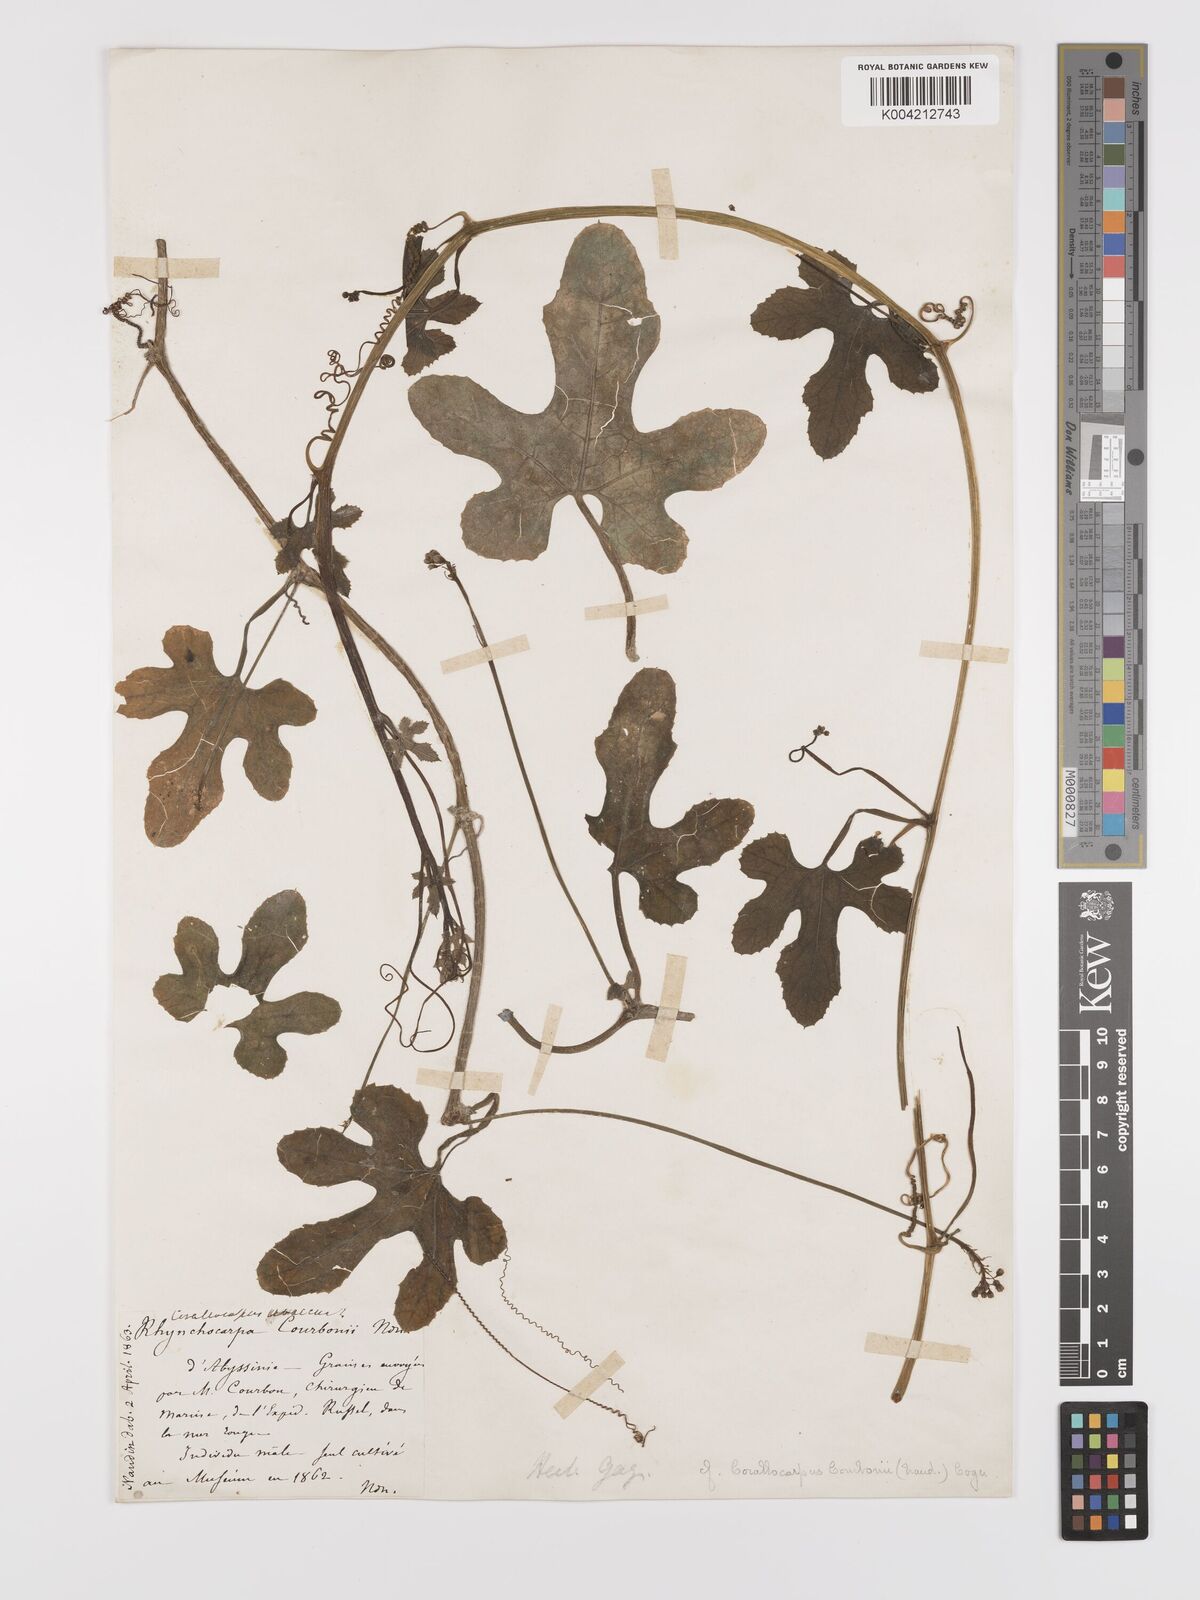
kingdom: Plantae
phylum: Tracheophyta
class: Magnoliopsida
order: Cucurbitales
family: Cucurbitaceae
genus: Corallocarpus
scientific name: Corallocarpus schimperi
